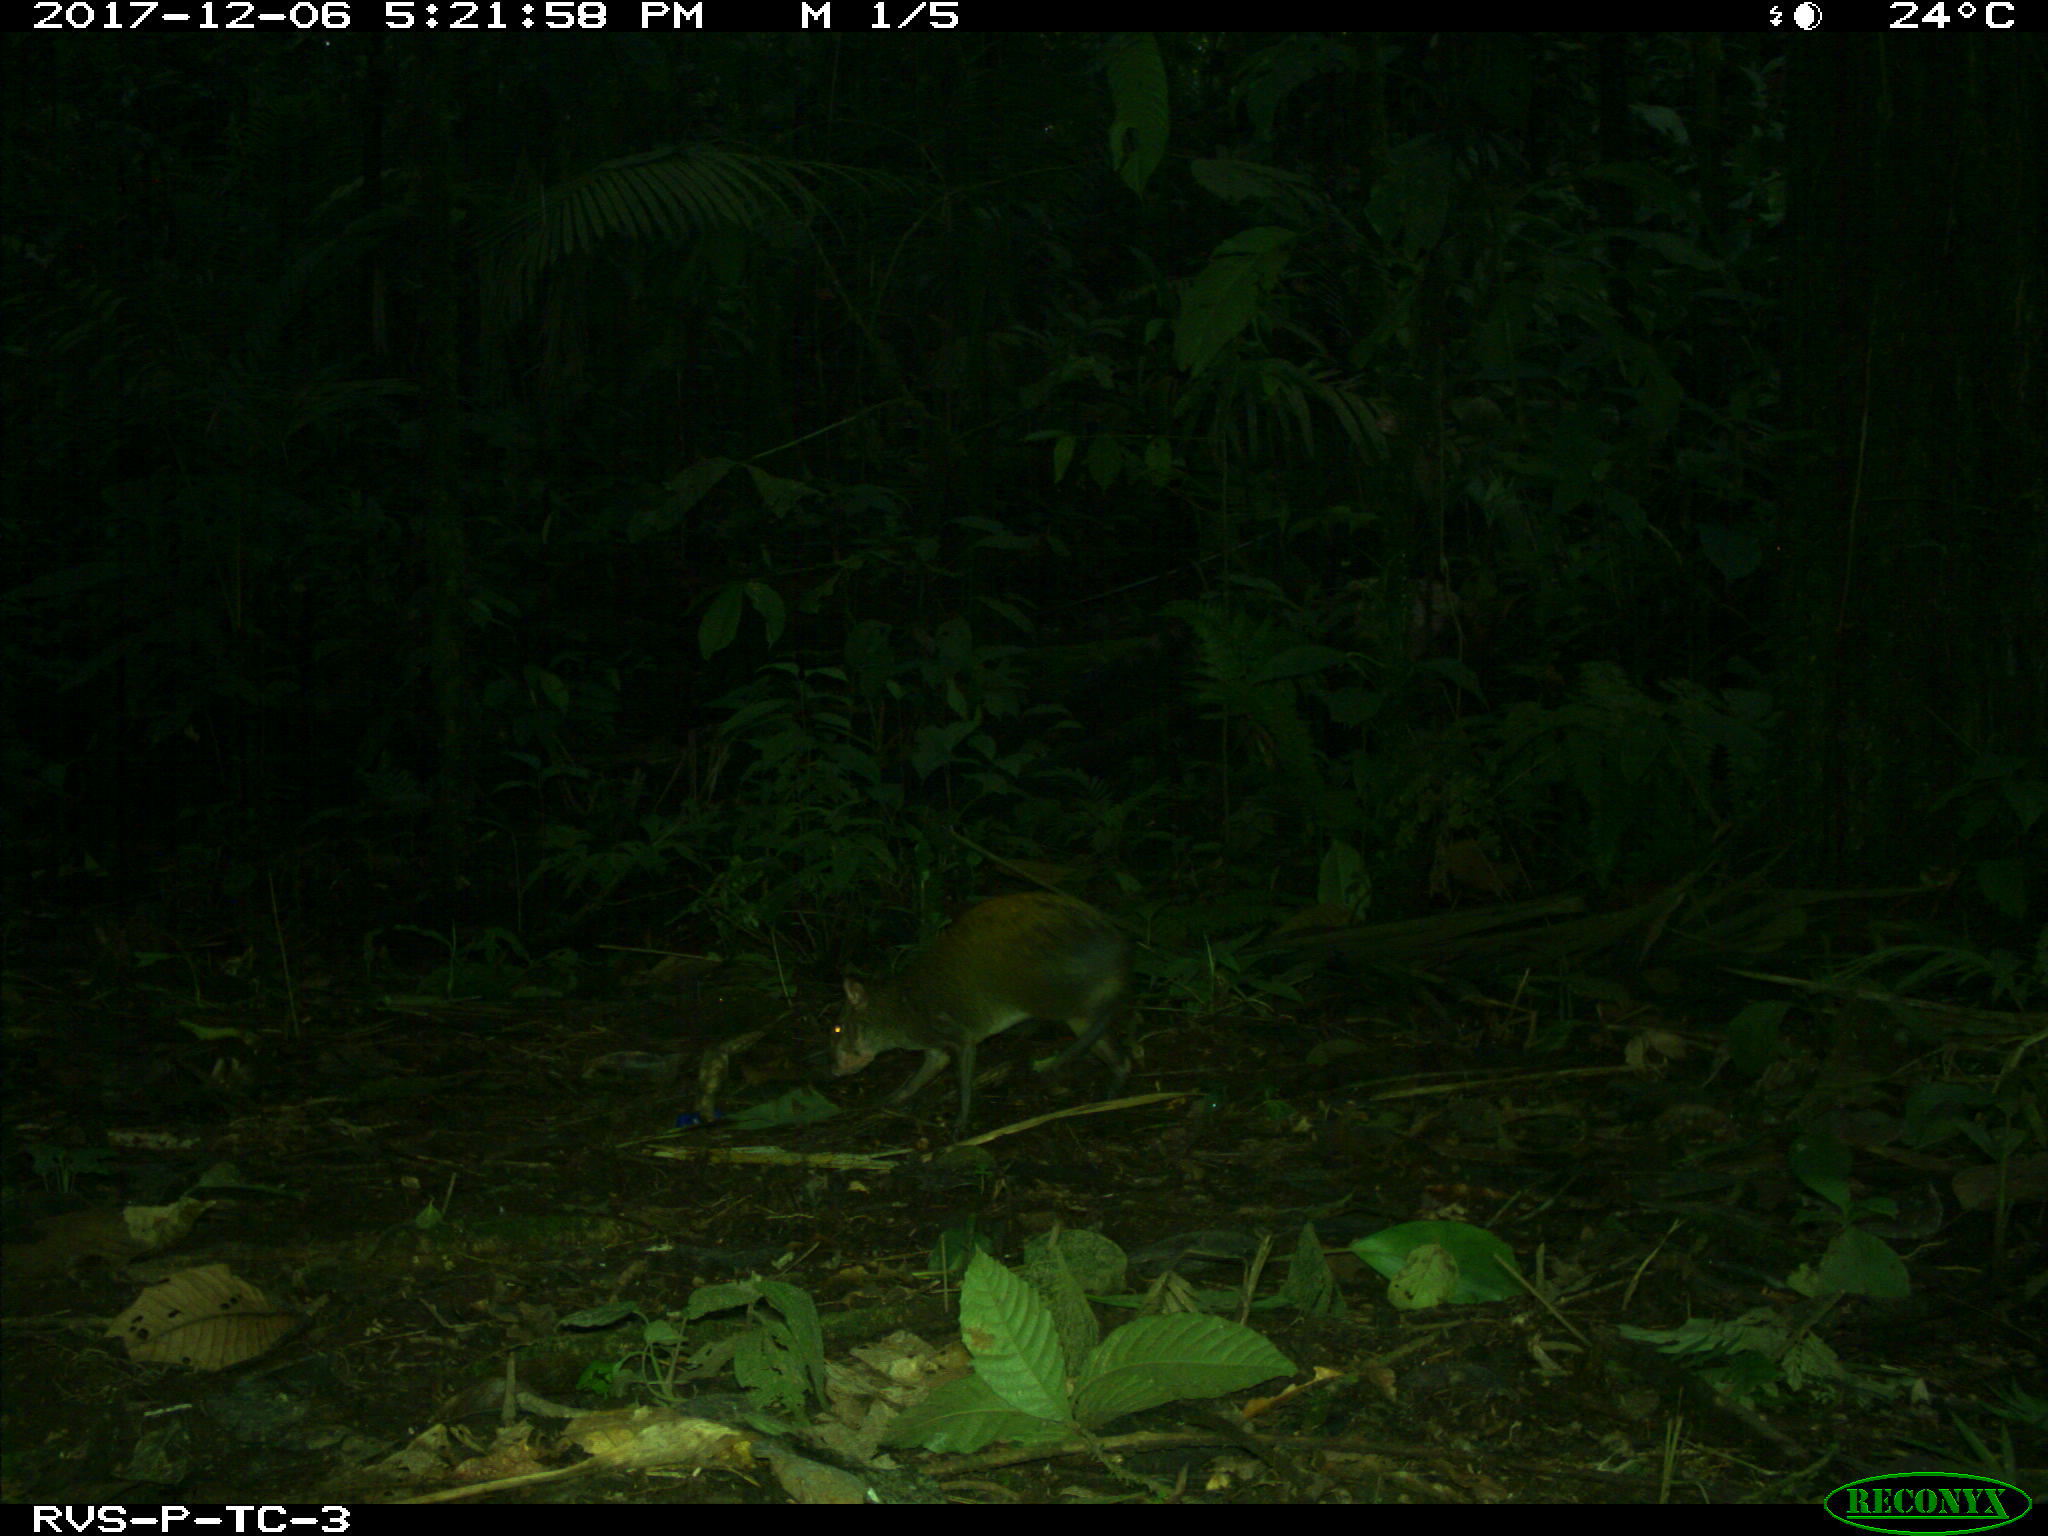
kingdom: Animalia
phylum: Chordata
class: Mammalia
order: Rodentia
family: Dasyproctidae
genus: Dasyprocta
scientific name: Dasyprocta punctata
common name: Central american agouti
